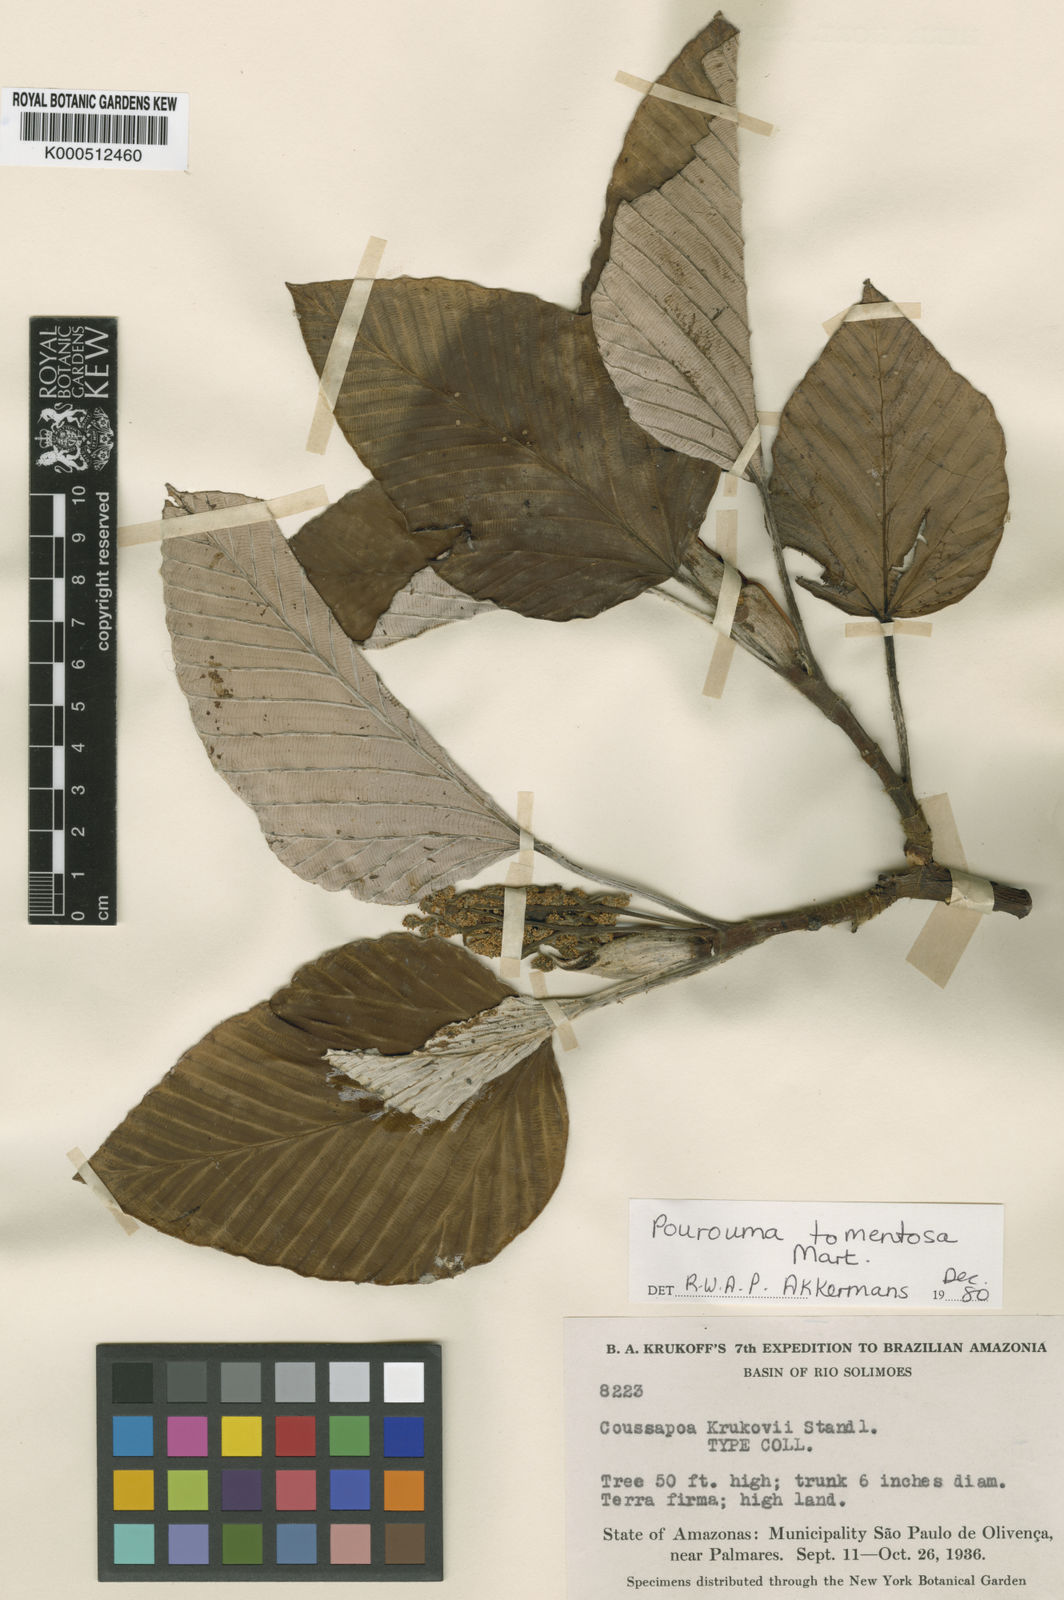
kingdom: Plantae
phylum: Tracheophyta
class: Magnoliopsida
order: Rosales
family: Urticaceae
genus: Pourouma
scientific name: Pourouma tomentosa
